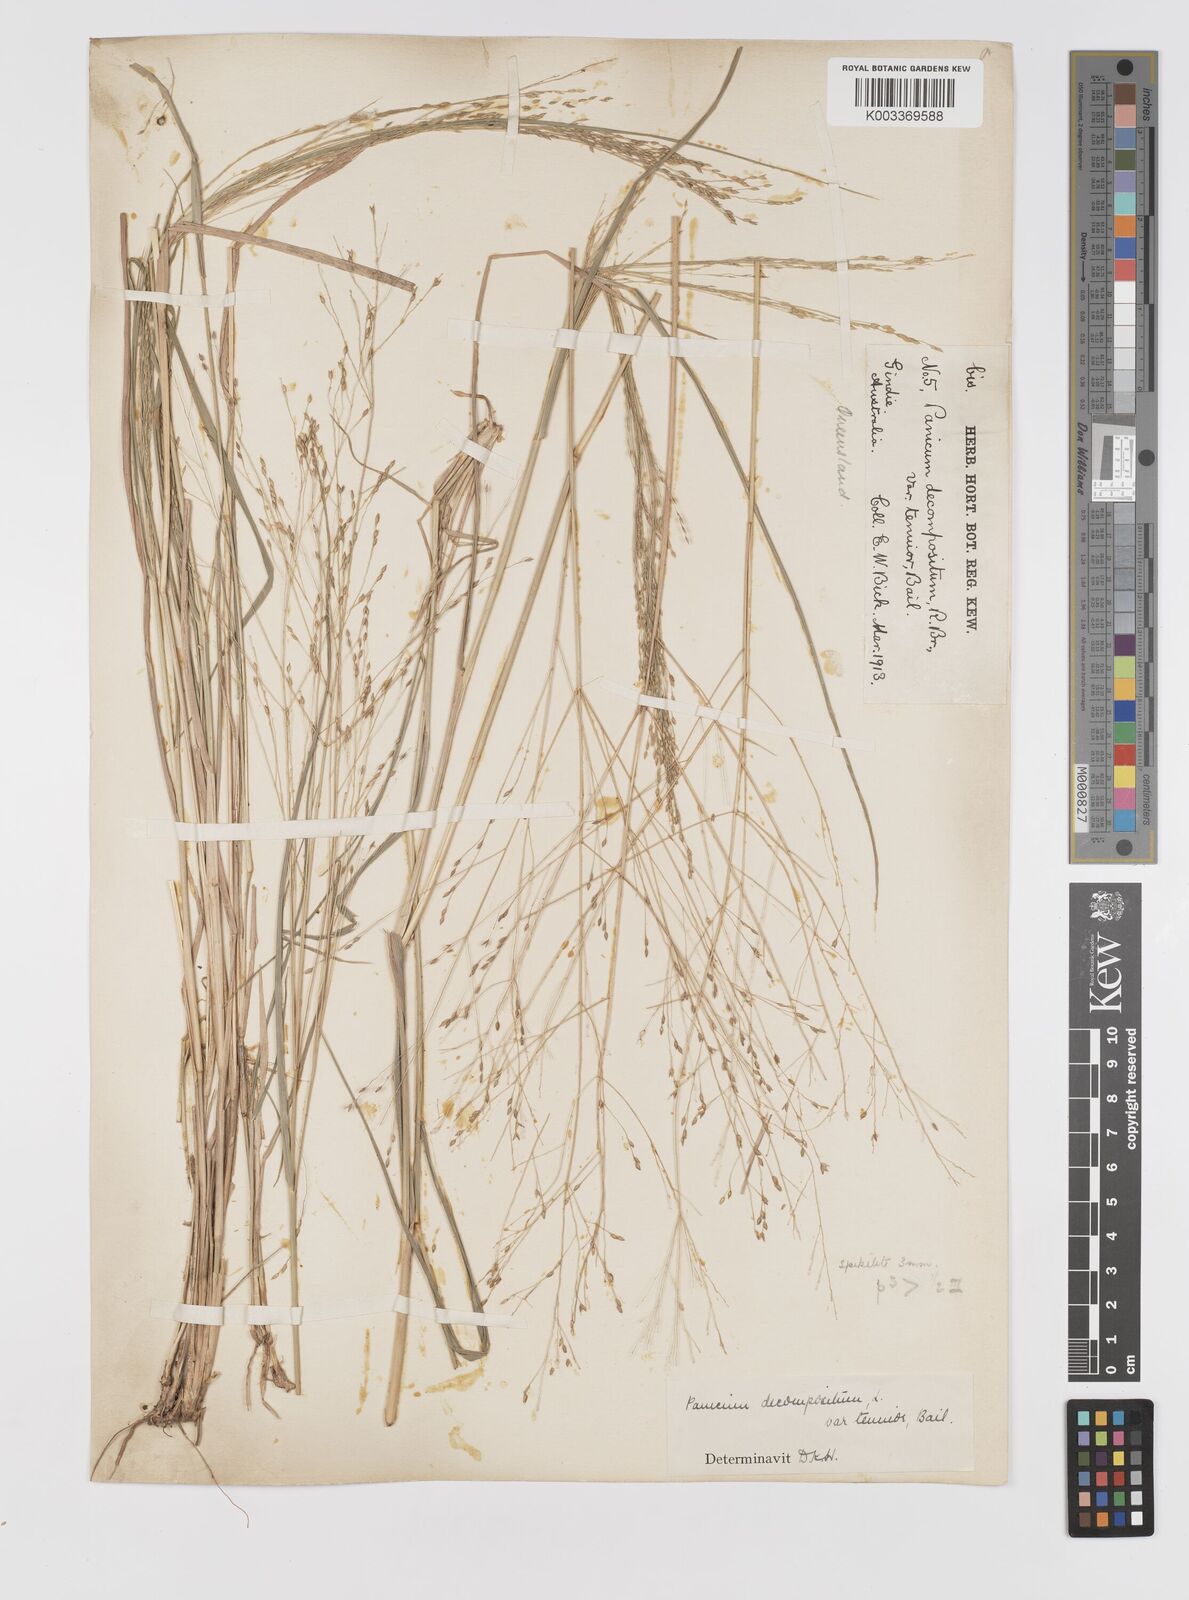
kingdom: Plantae
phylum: Tracheophyta
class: Liliopsida
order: Poales
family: Poaceae
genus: Panicum
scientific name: Panicum decompositum
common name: Australian millet
